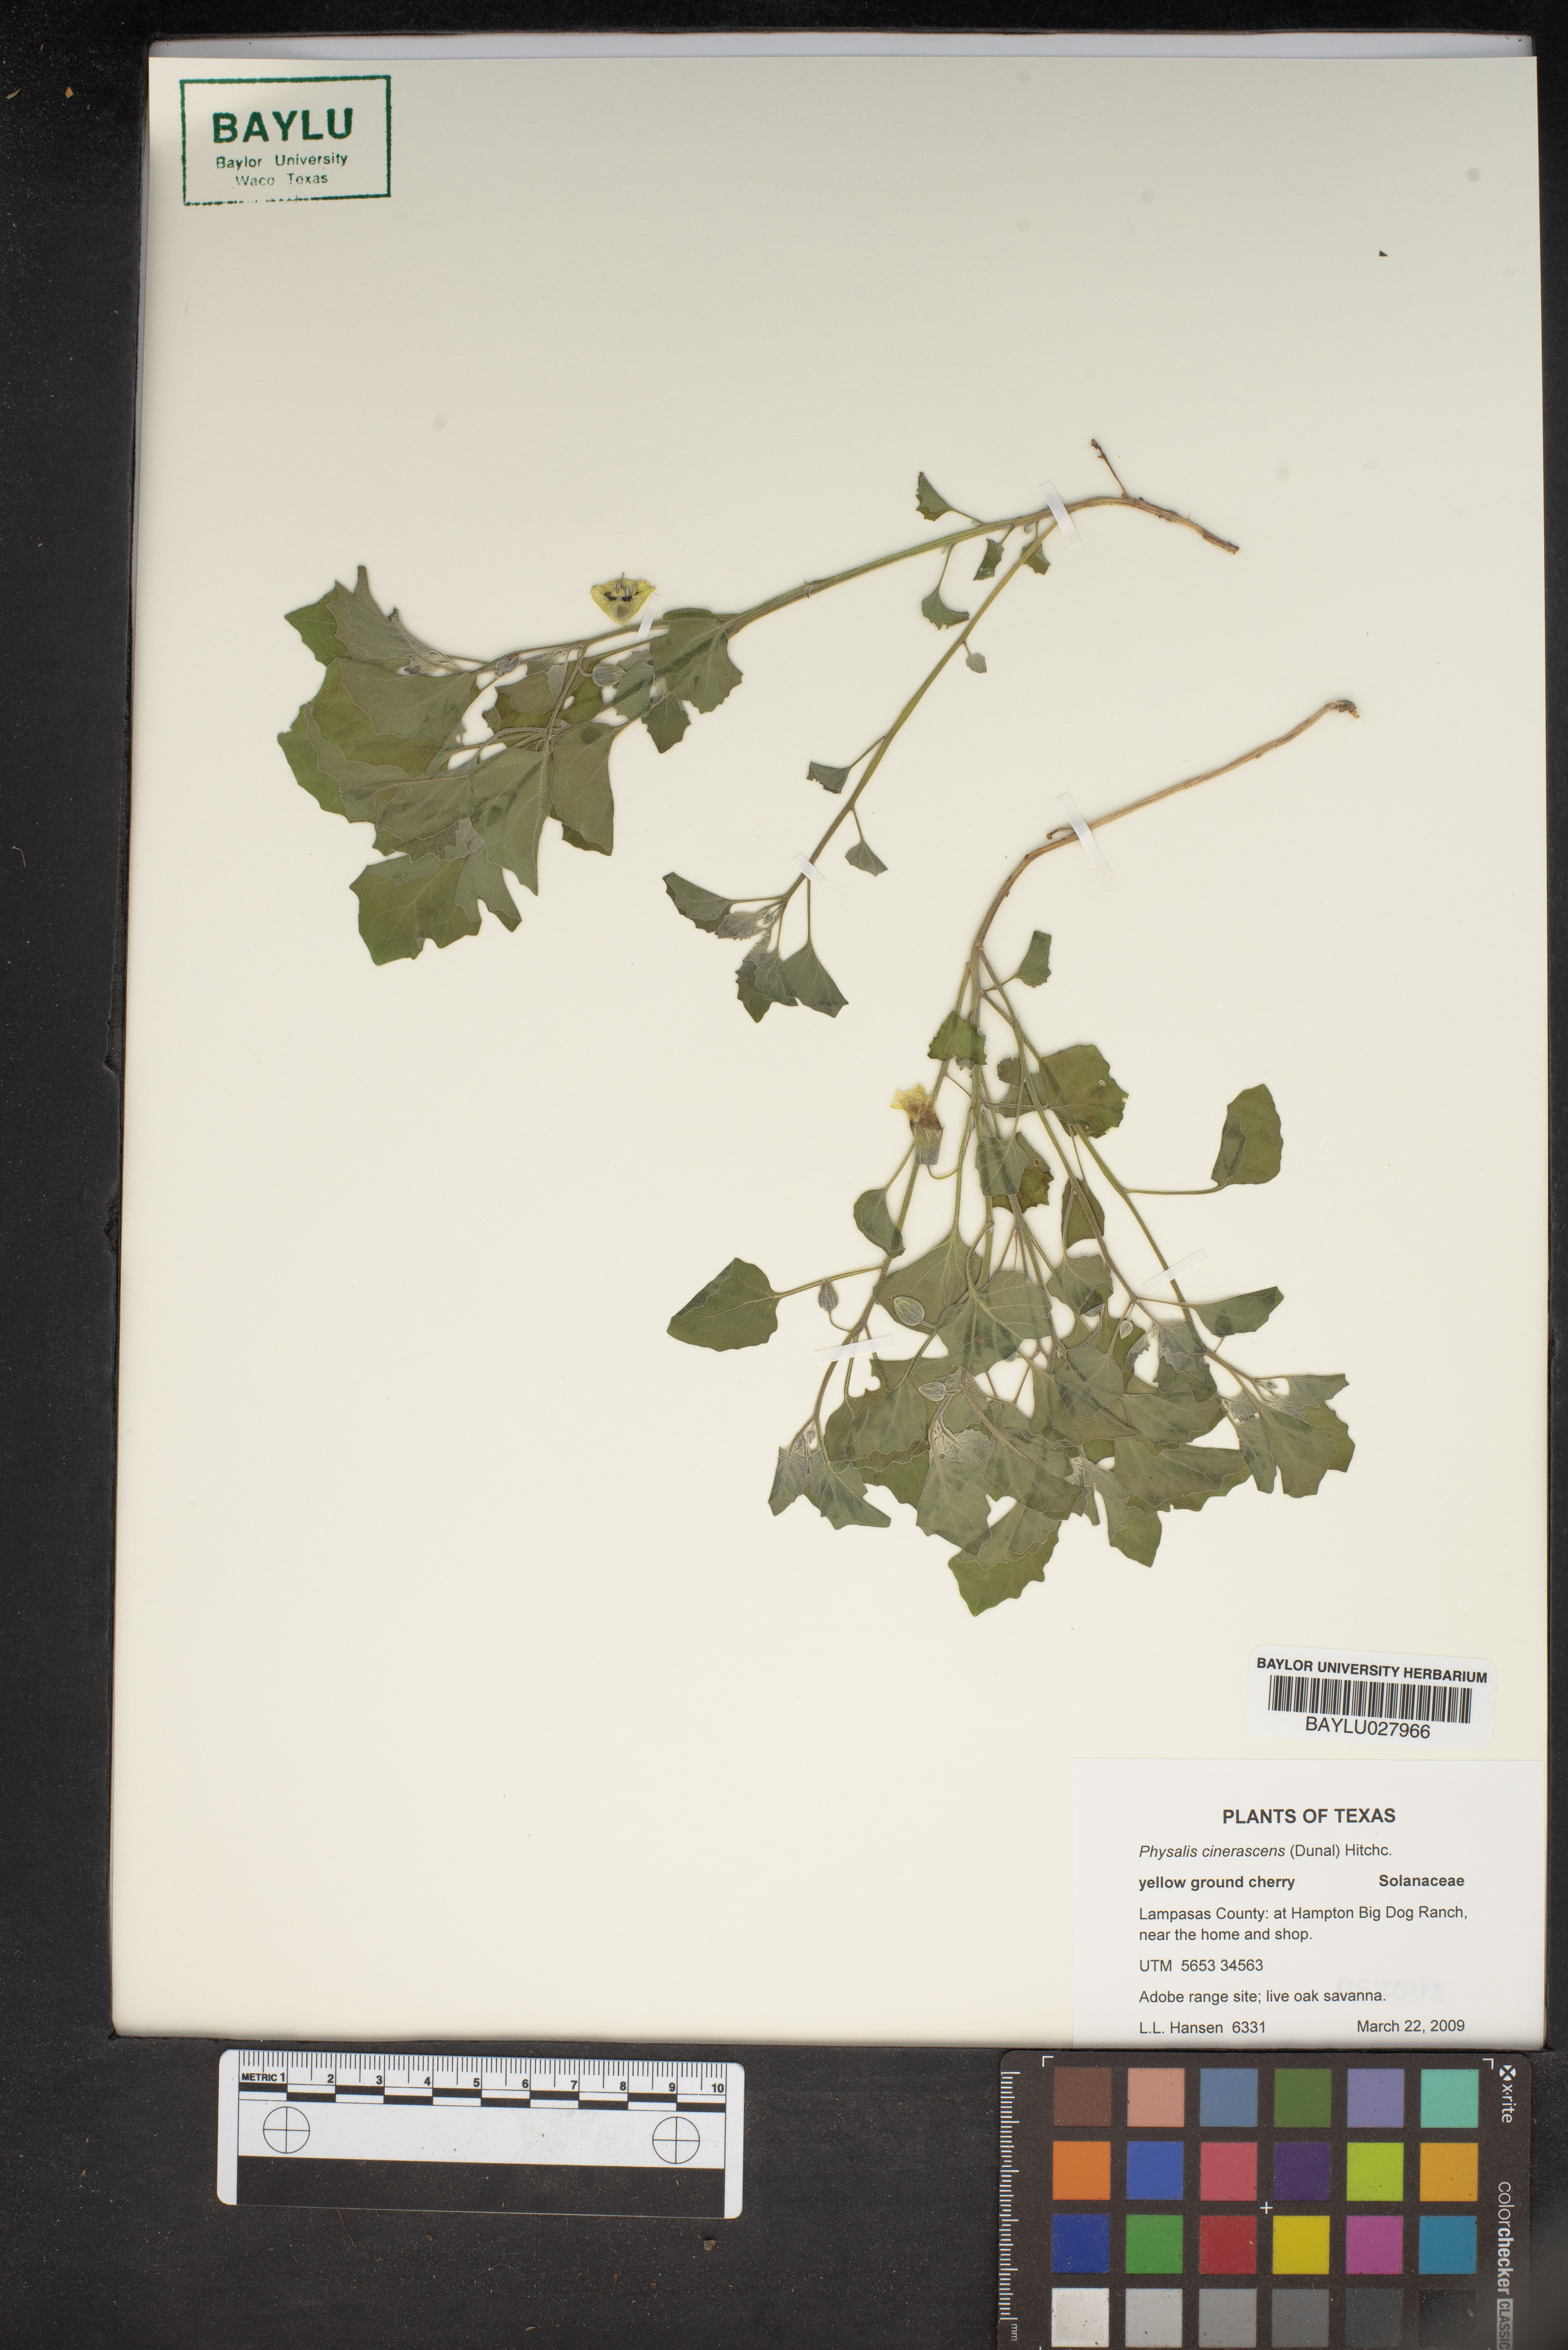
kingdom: Plantae
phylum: Tracheophyta
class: Magnoliopsida
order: Solanales
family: Solanaceae
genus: Physalis
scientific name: Physalis cinerascens
